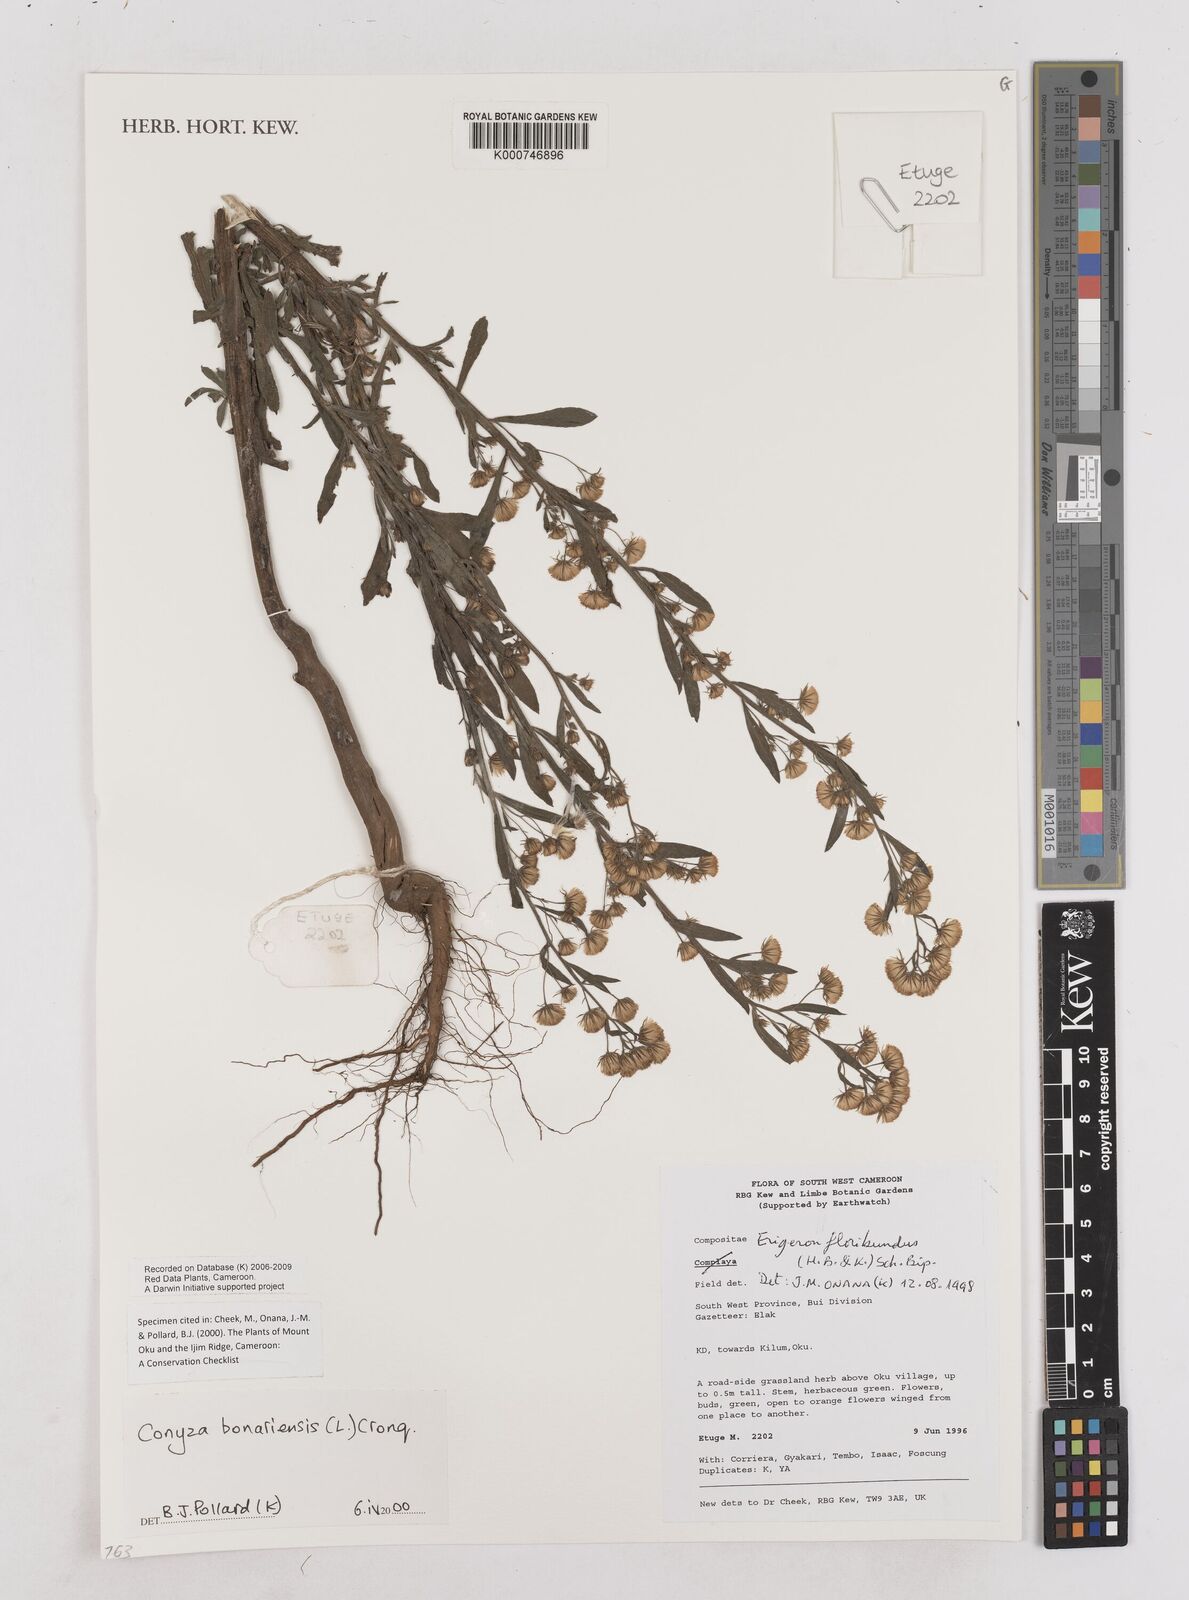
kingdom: Plantae
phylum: Tracheophyta
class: Magnoliopsida
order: Asterales
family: Asteraceae
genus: Erigeron
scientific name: Erigeron bonariensis
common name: Argentine fleabane
